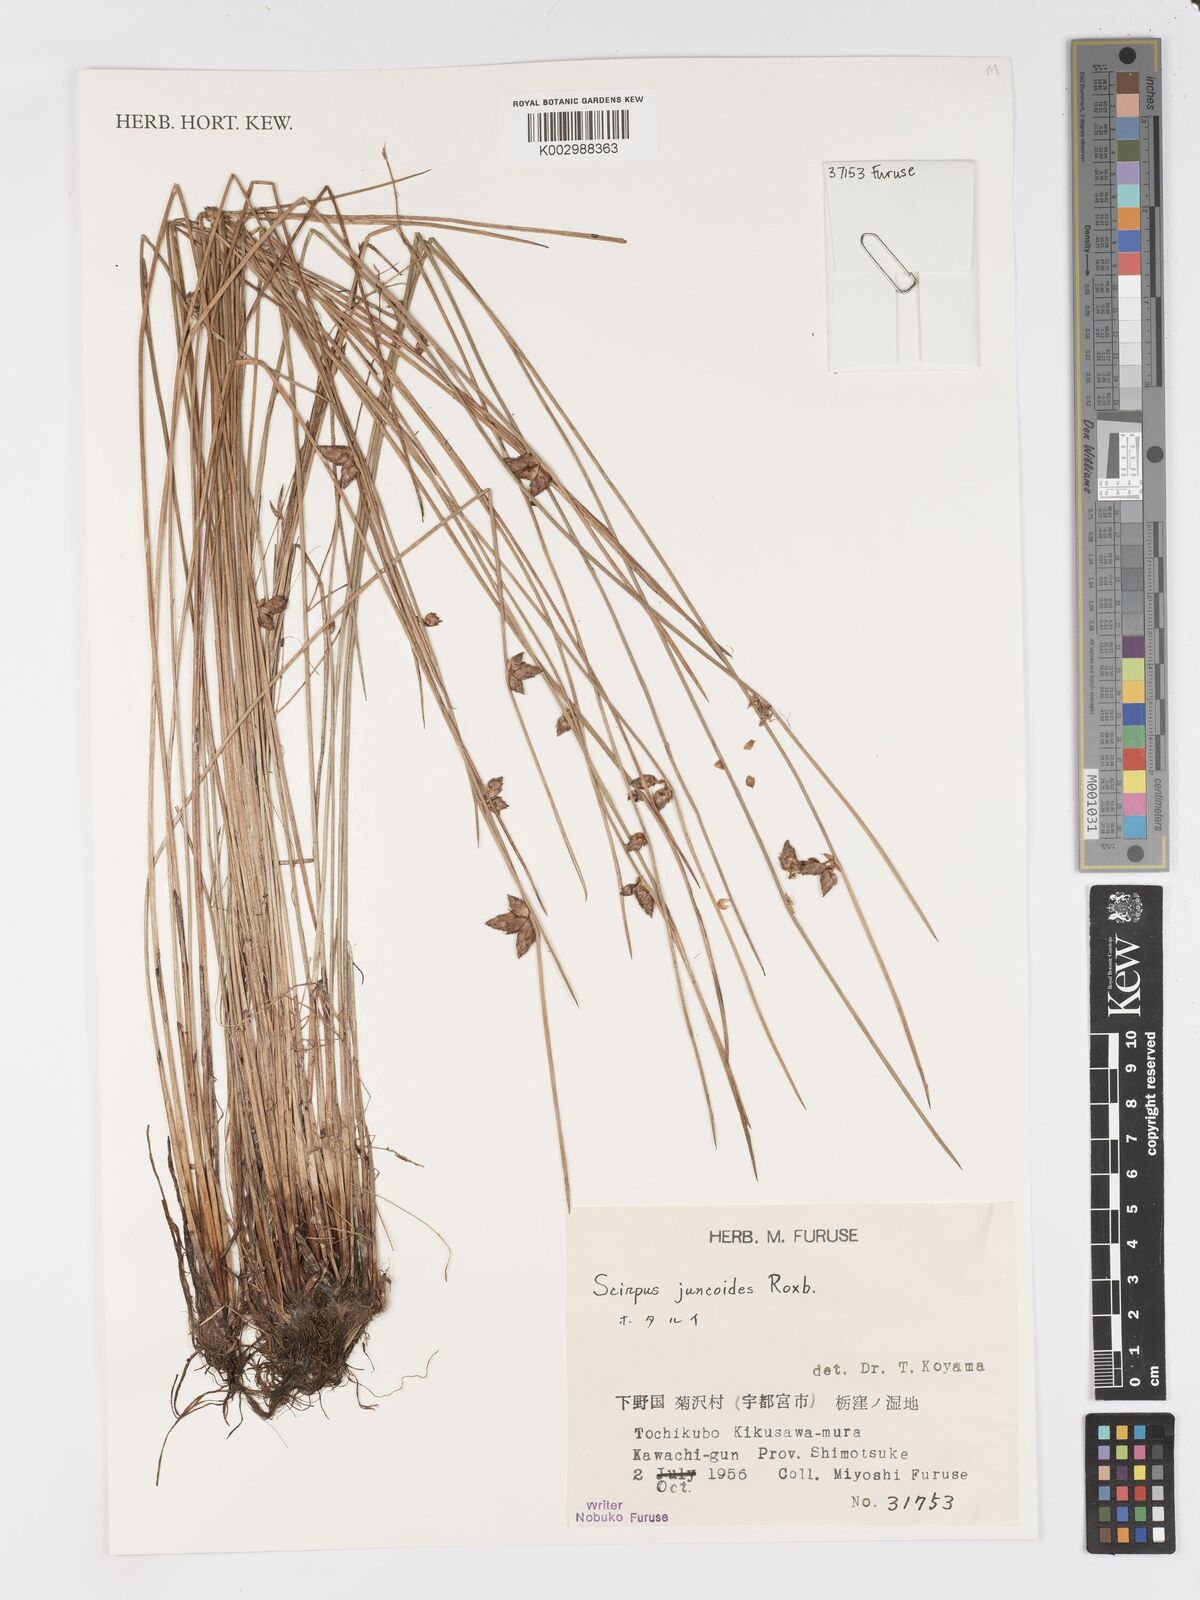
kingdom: Plantae
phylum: Tracheophyta
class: Liliopsida
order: Poales
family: Cyperaceae
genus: Schoenoplectiella
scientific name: Schoenoplectiella juncoides
